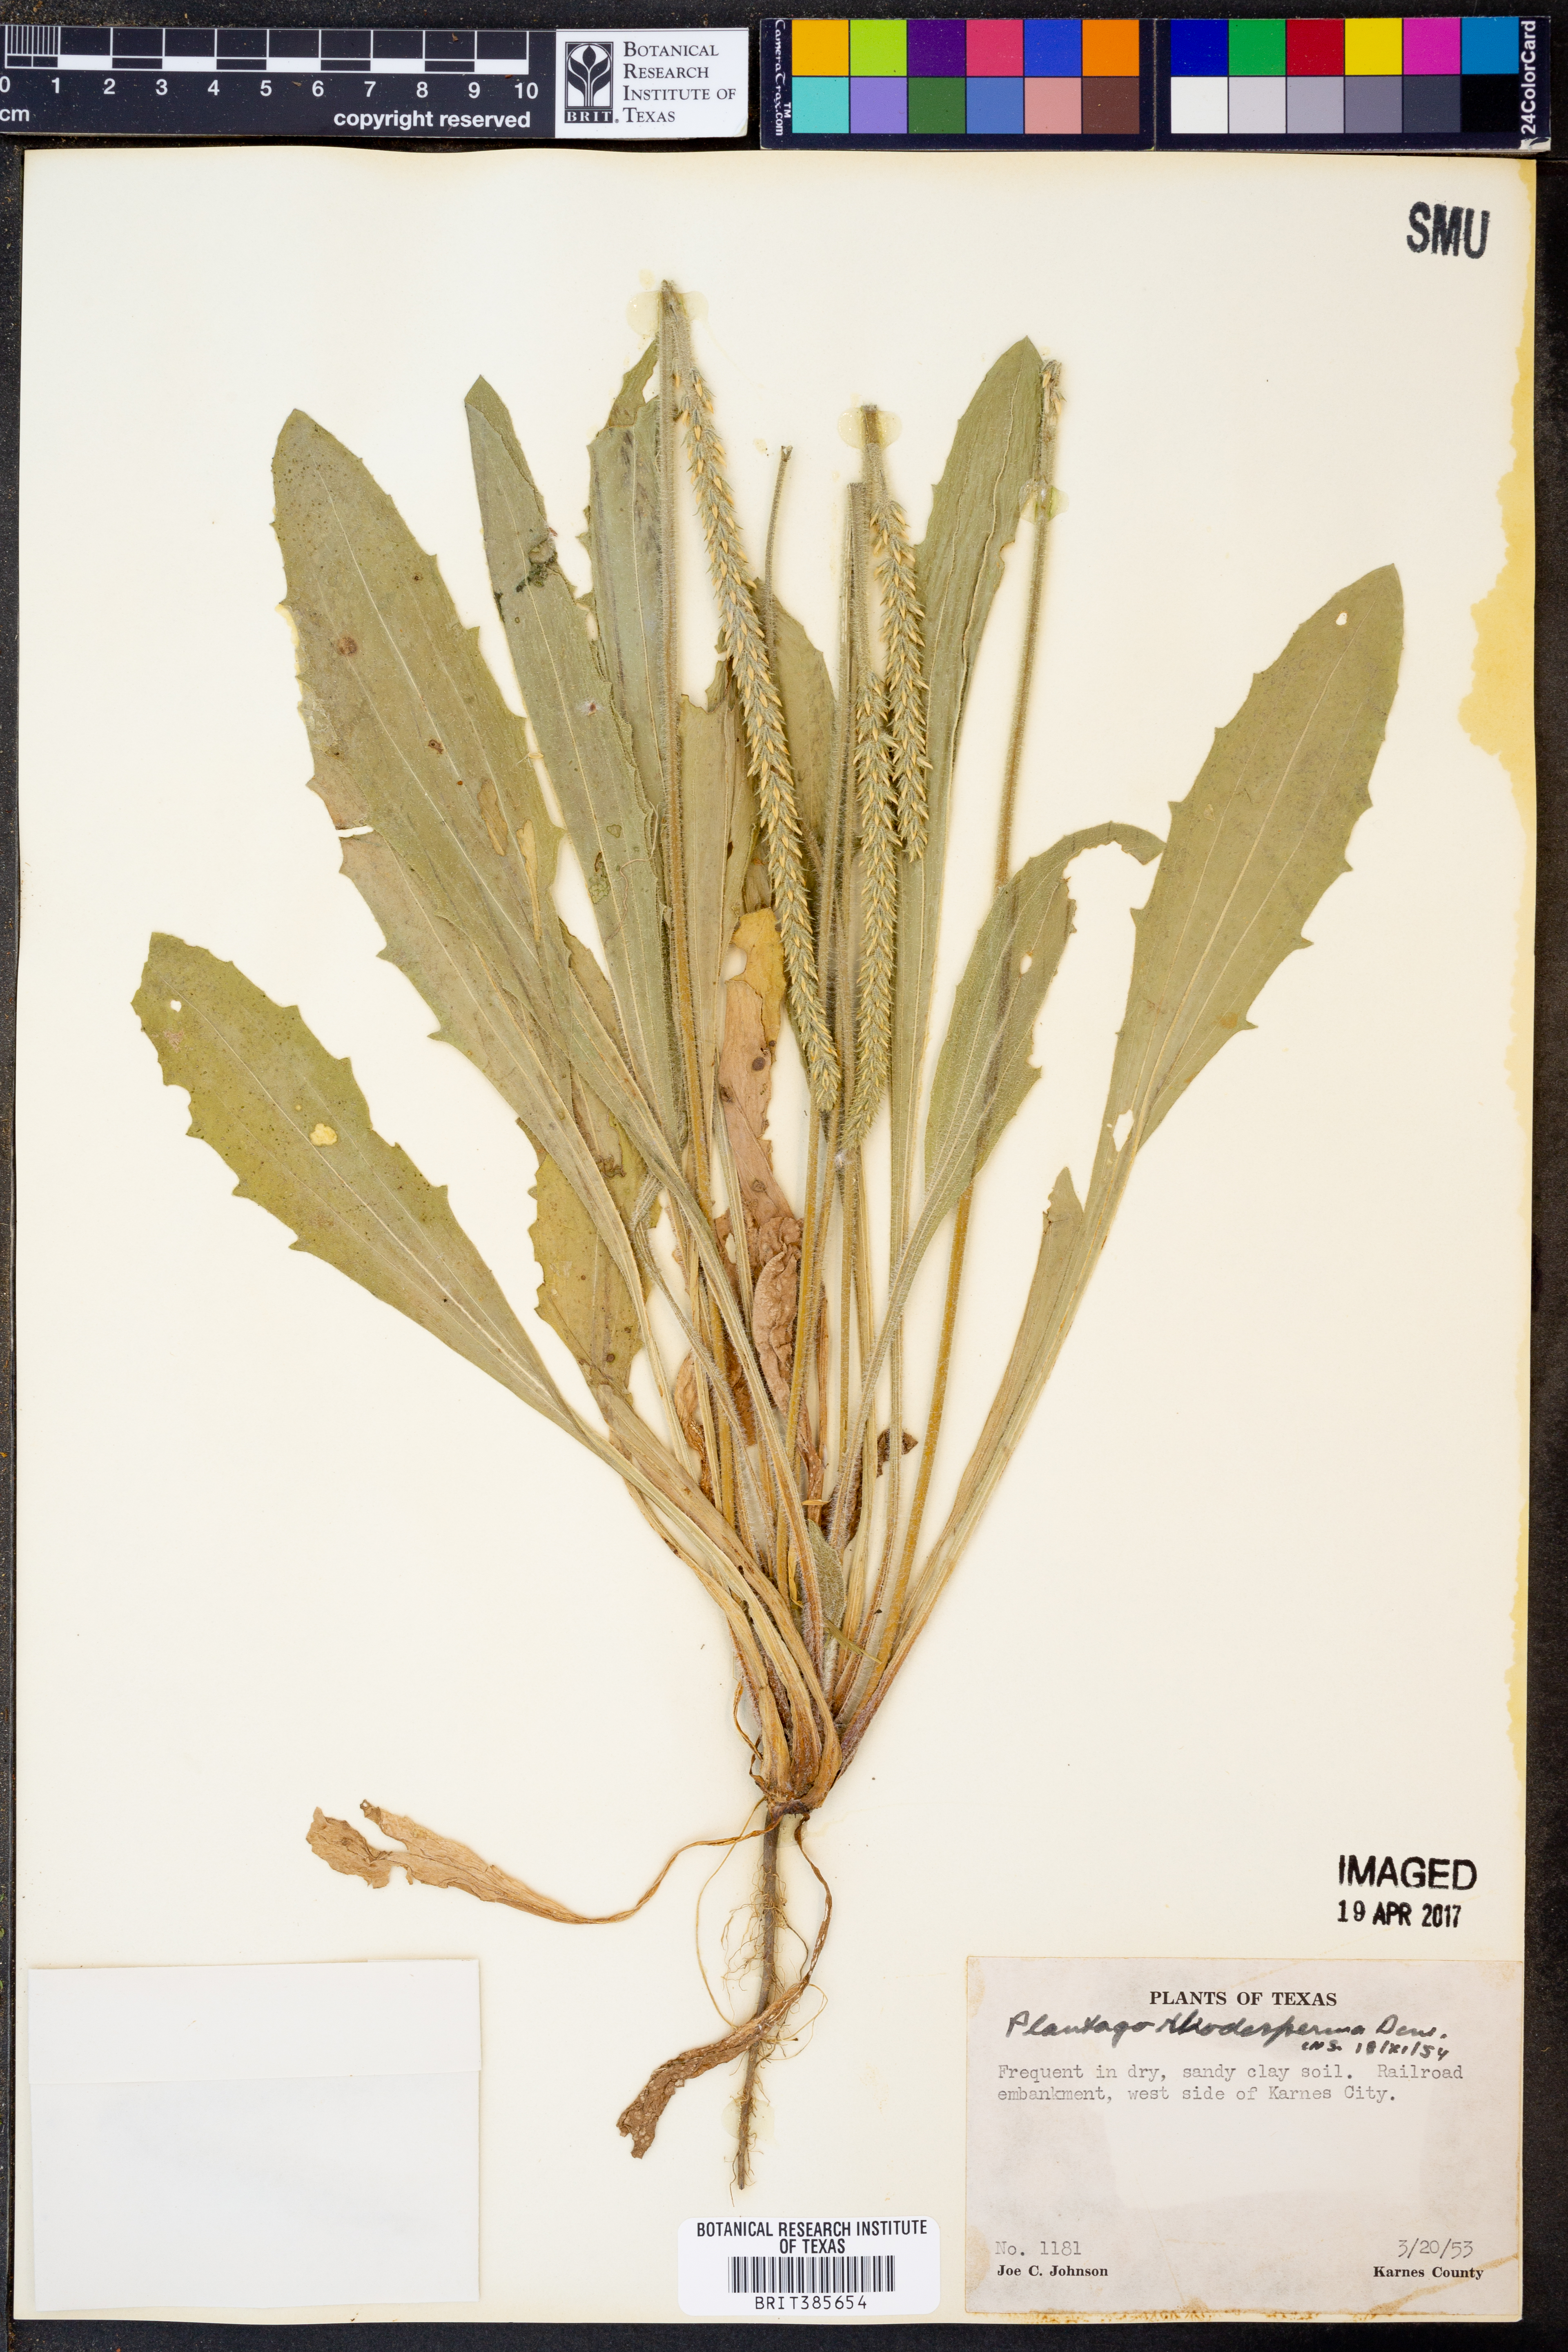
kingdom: Plantae
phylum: Tracheophyta
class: Magnoliopsida
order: Lamiales
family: Plantaginaceae
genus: Plantago
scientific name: Plantago rhodosperma
